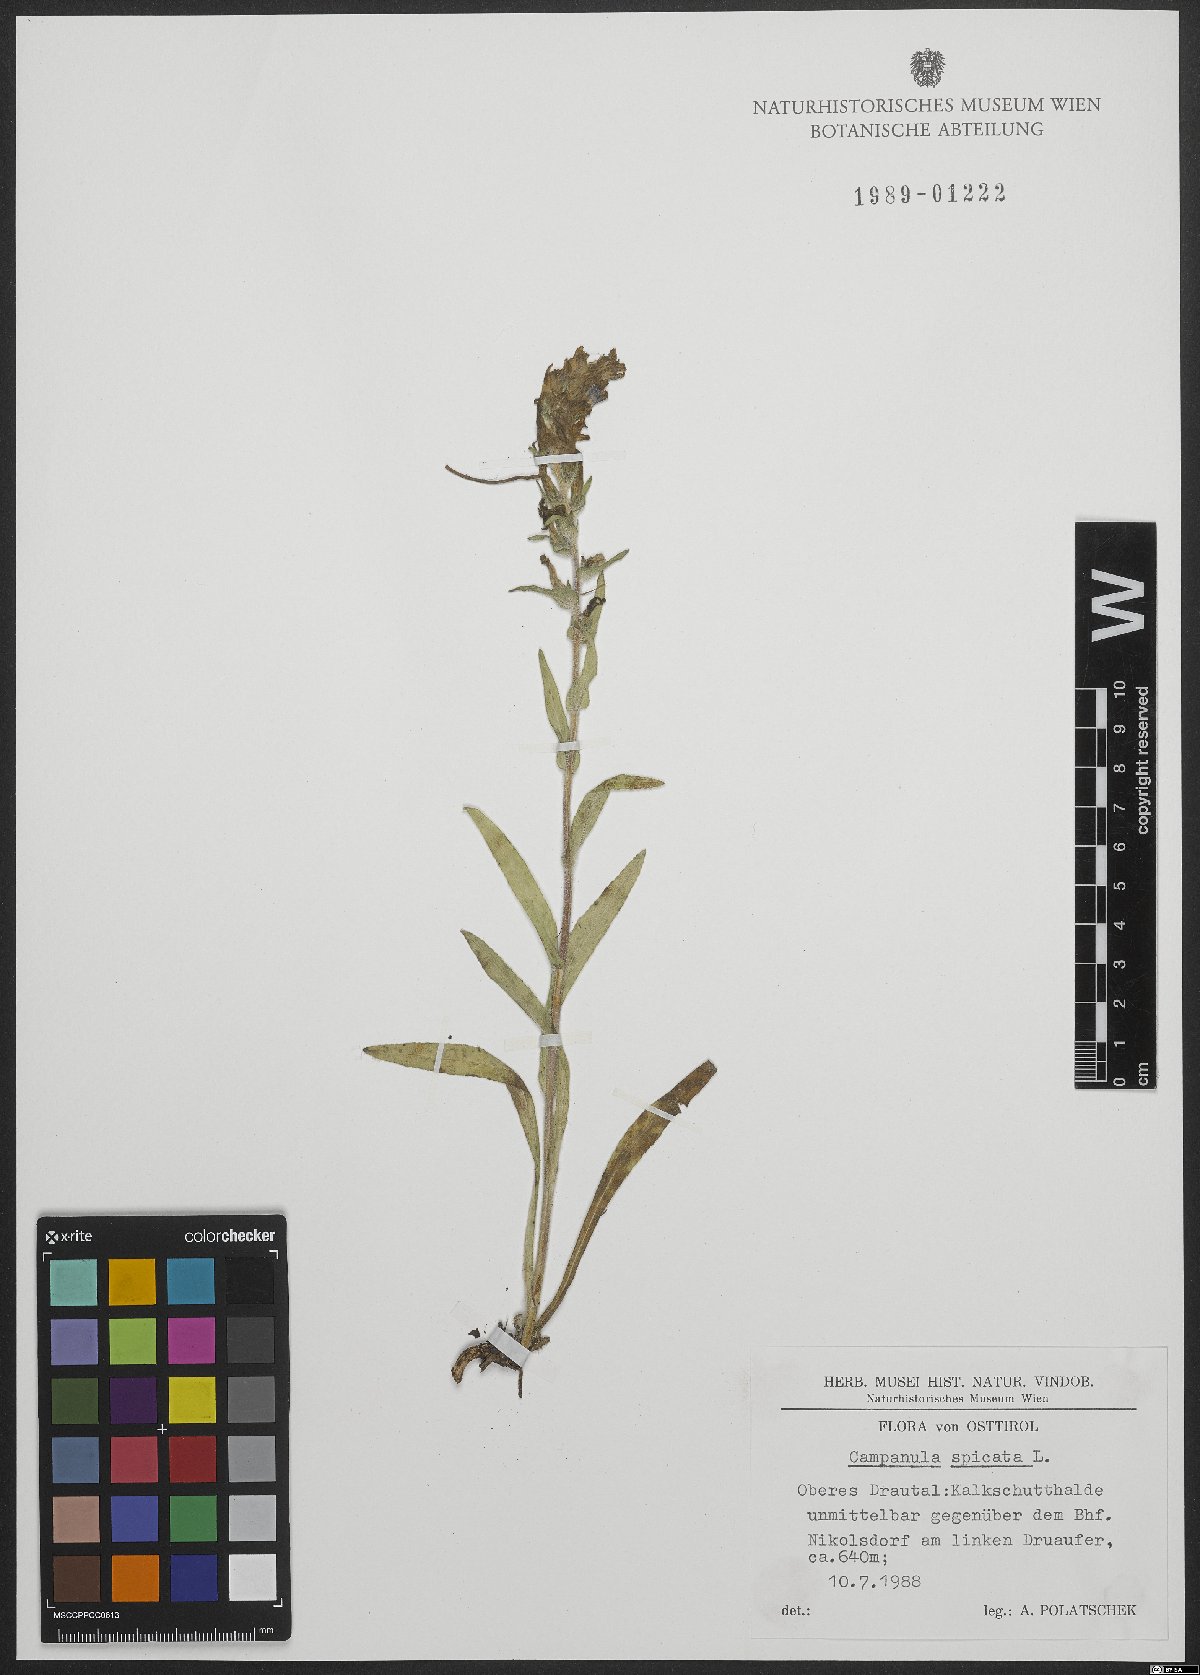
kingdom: Plantae
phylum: Tracheophyta
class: Magnoliopsida
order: Asterales
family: Campanulaceae
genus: Campanula
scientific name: Campanula spicata
